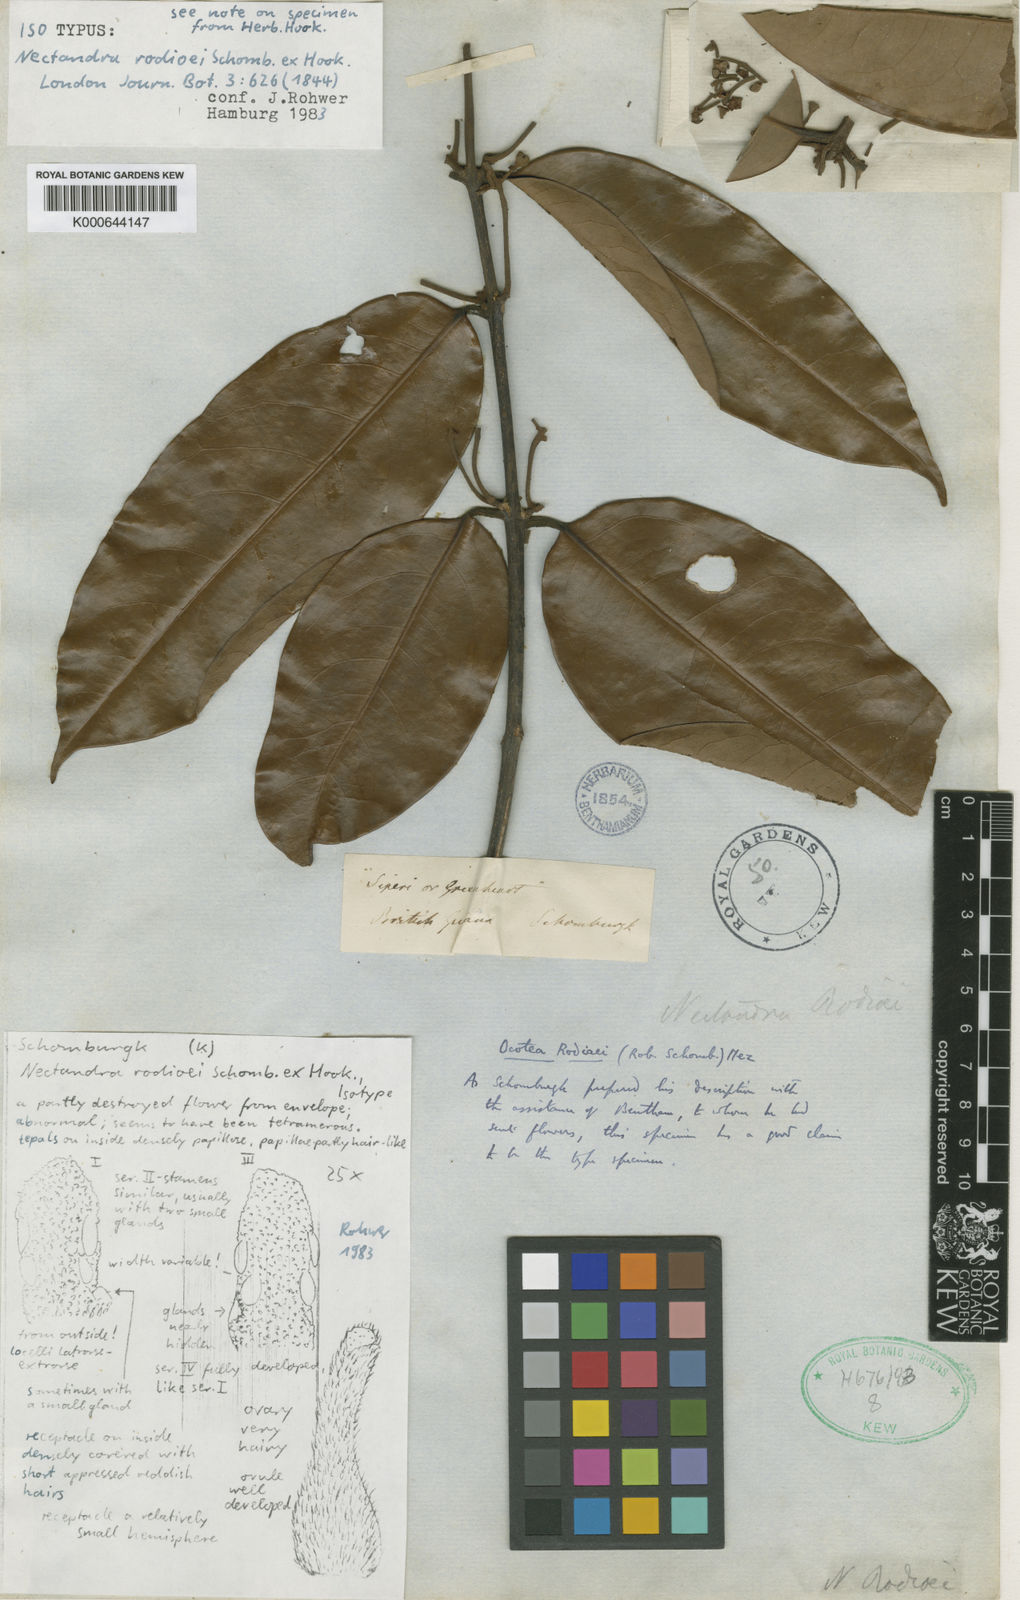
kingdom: Plantae
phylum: Tracheophyta
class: Magnoliopsida
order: Laurales
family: Lauraceae
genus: Chlorocardium
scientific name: Chlorocardium rodiei
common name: Cogwood
